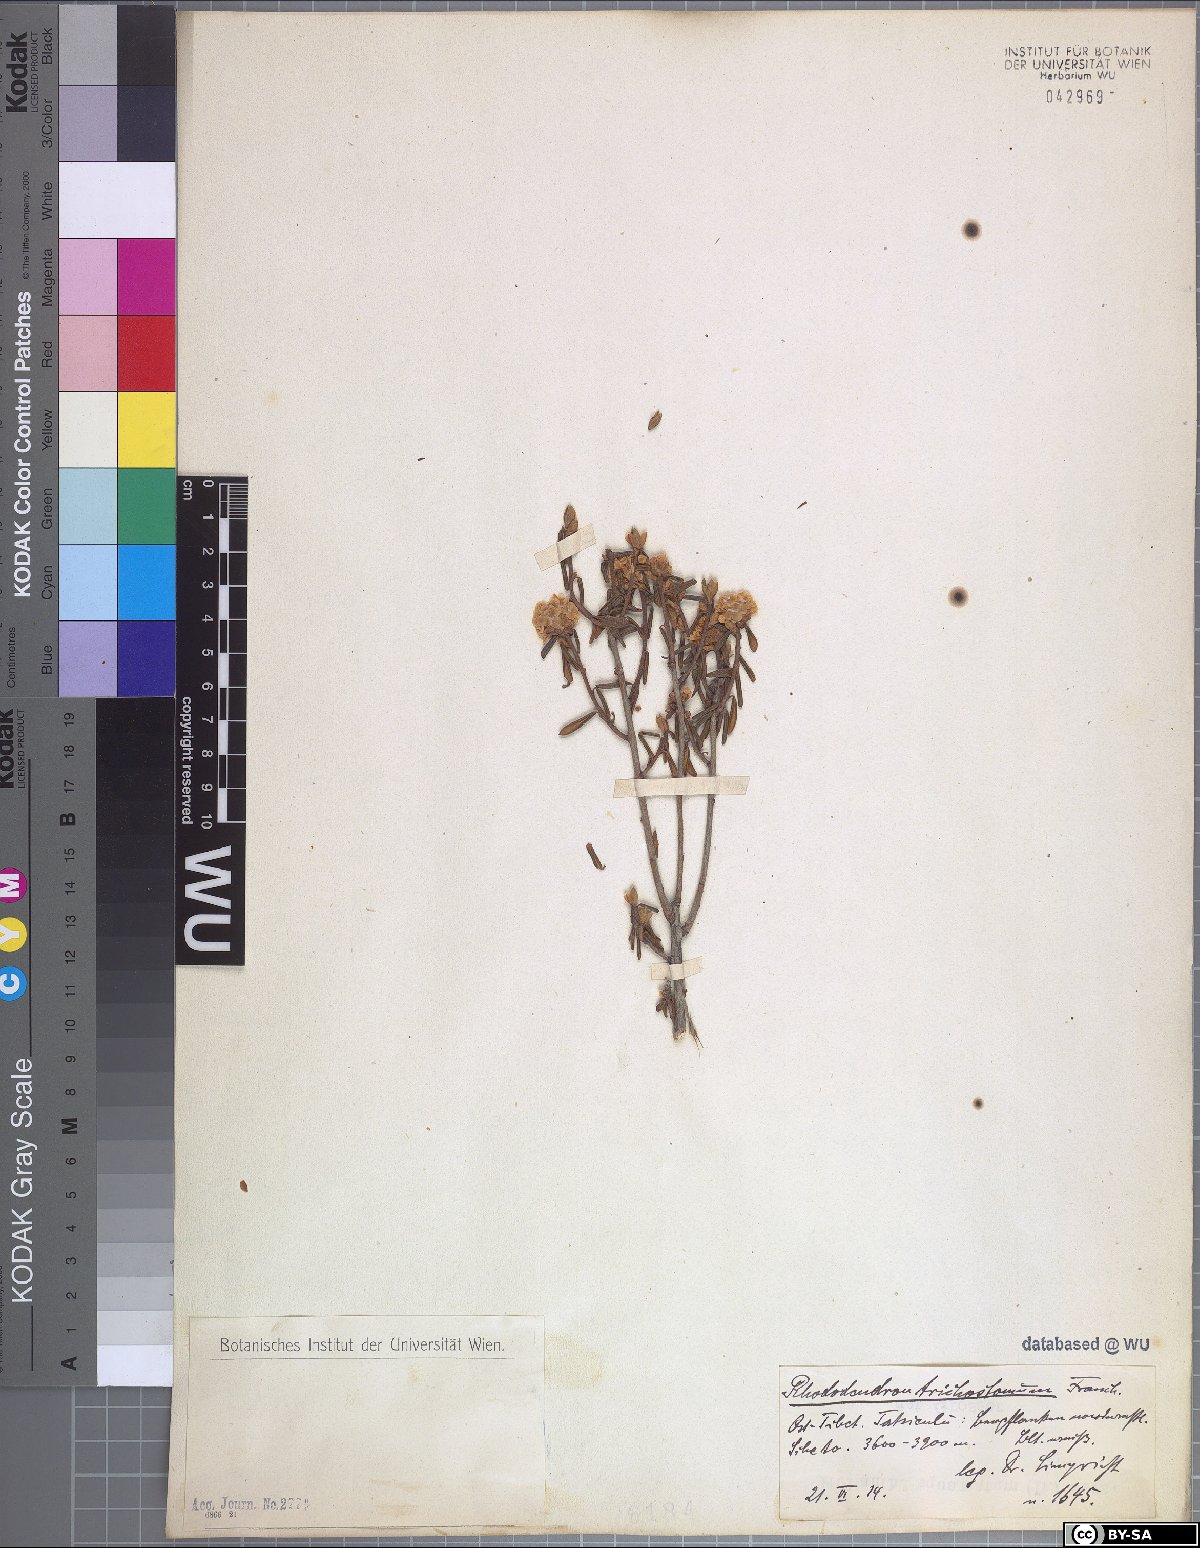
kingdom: Plantae
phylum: Tracheophyta
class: Magnoliopsida
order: Ericales
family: Ericaceae
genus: Rhododendron
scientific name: Rhododendron trichostomum
